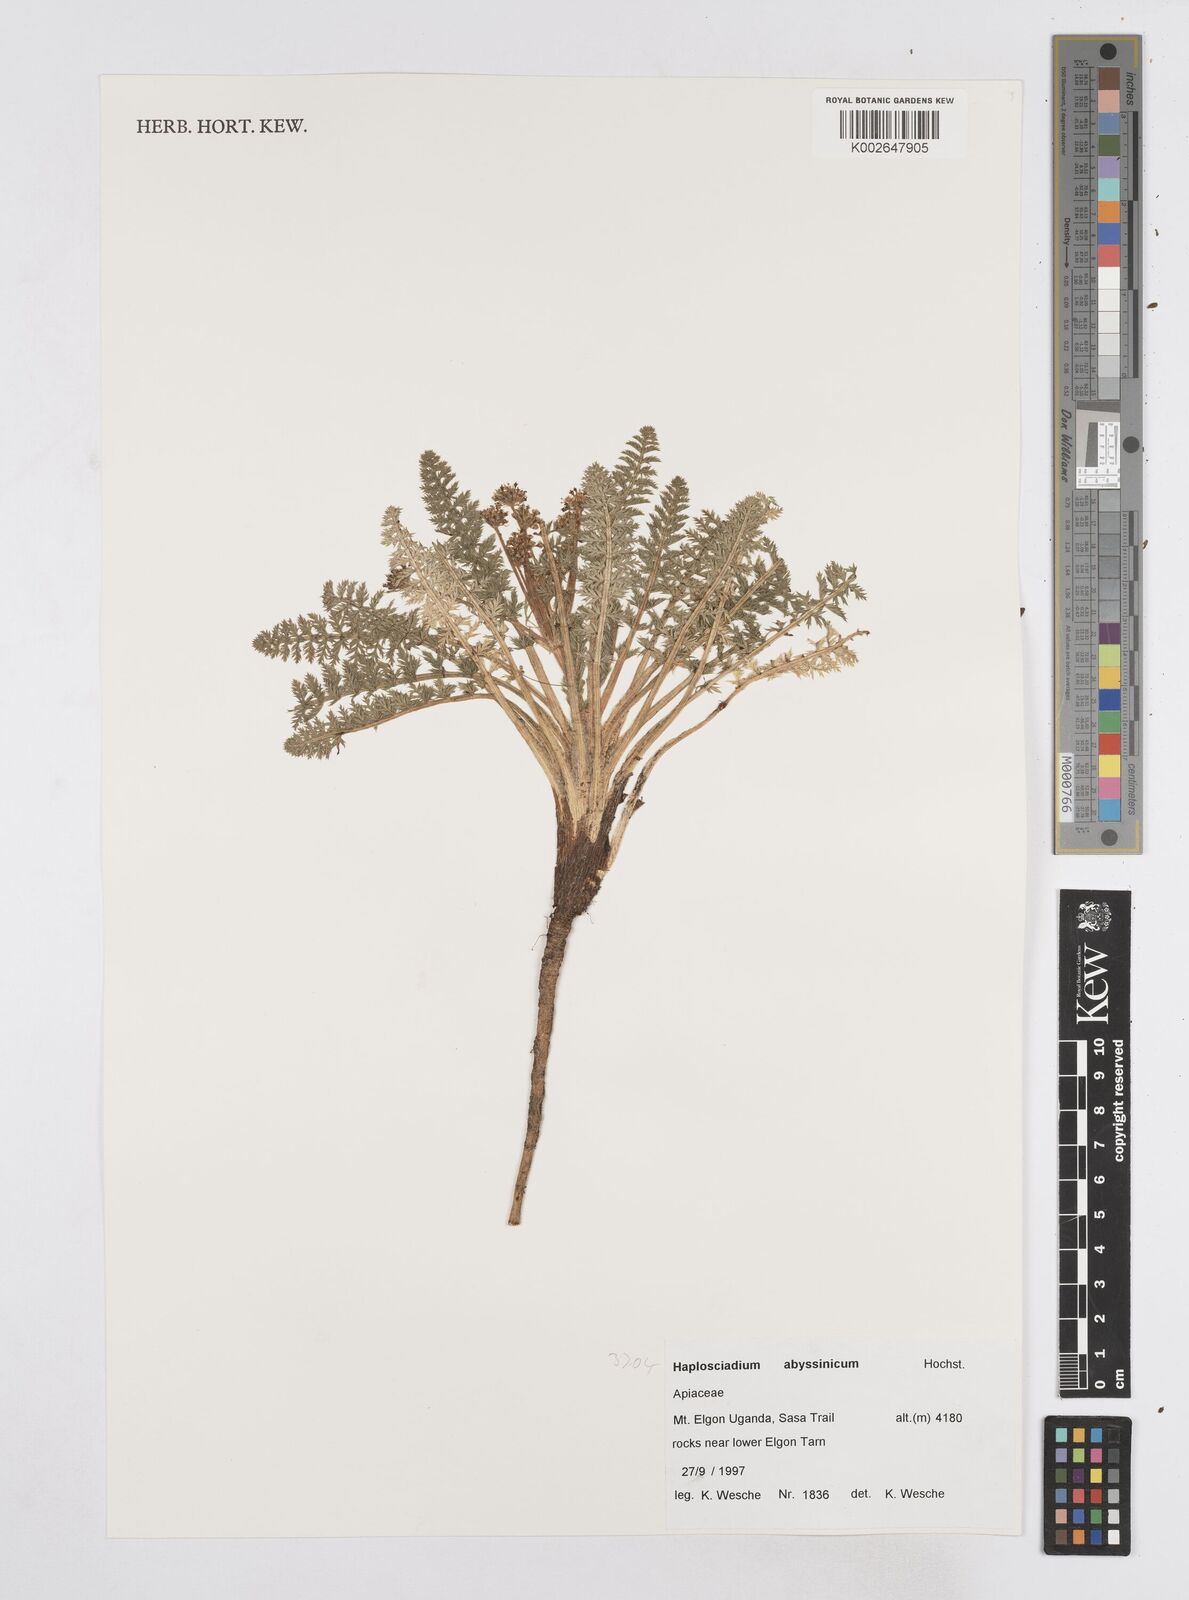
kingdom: Plantae
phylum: Tracheophyta
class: Magnoliopsida
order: Apiales
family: Apiaceae
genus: Haplosciadium
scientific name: Haplosciadium abyssinicum
